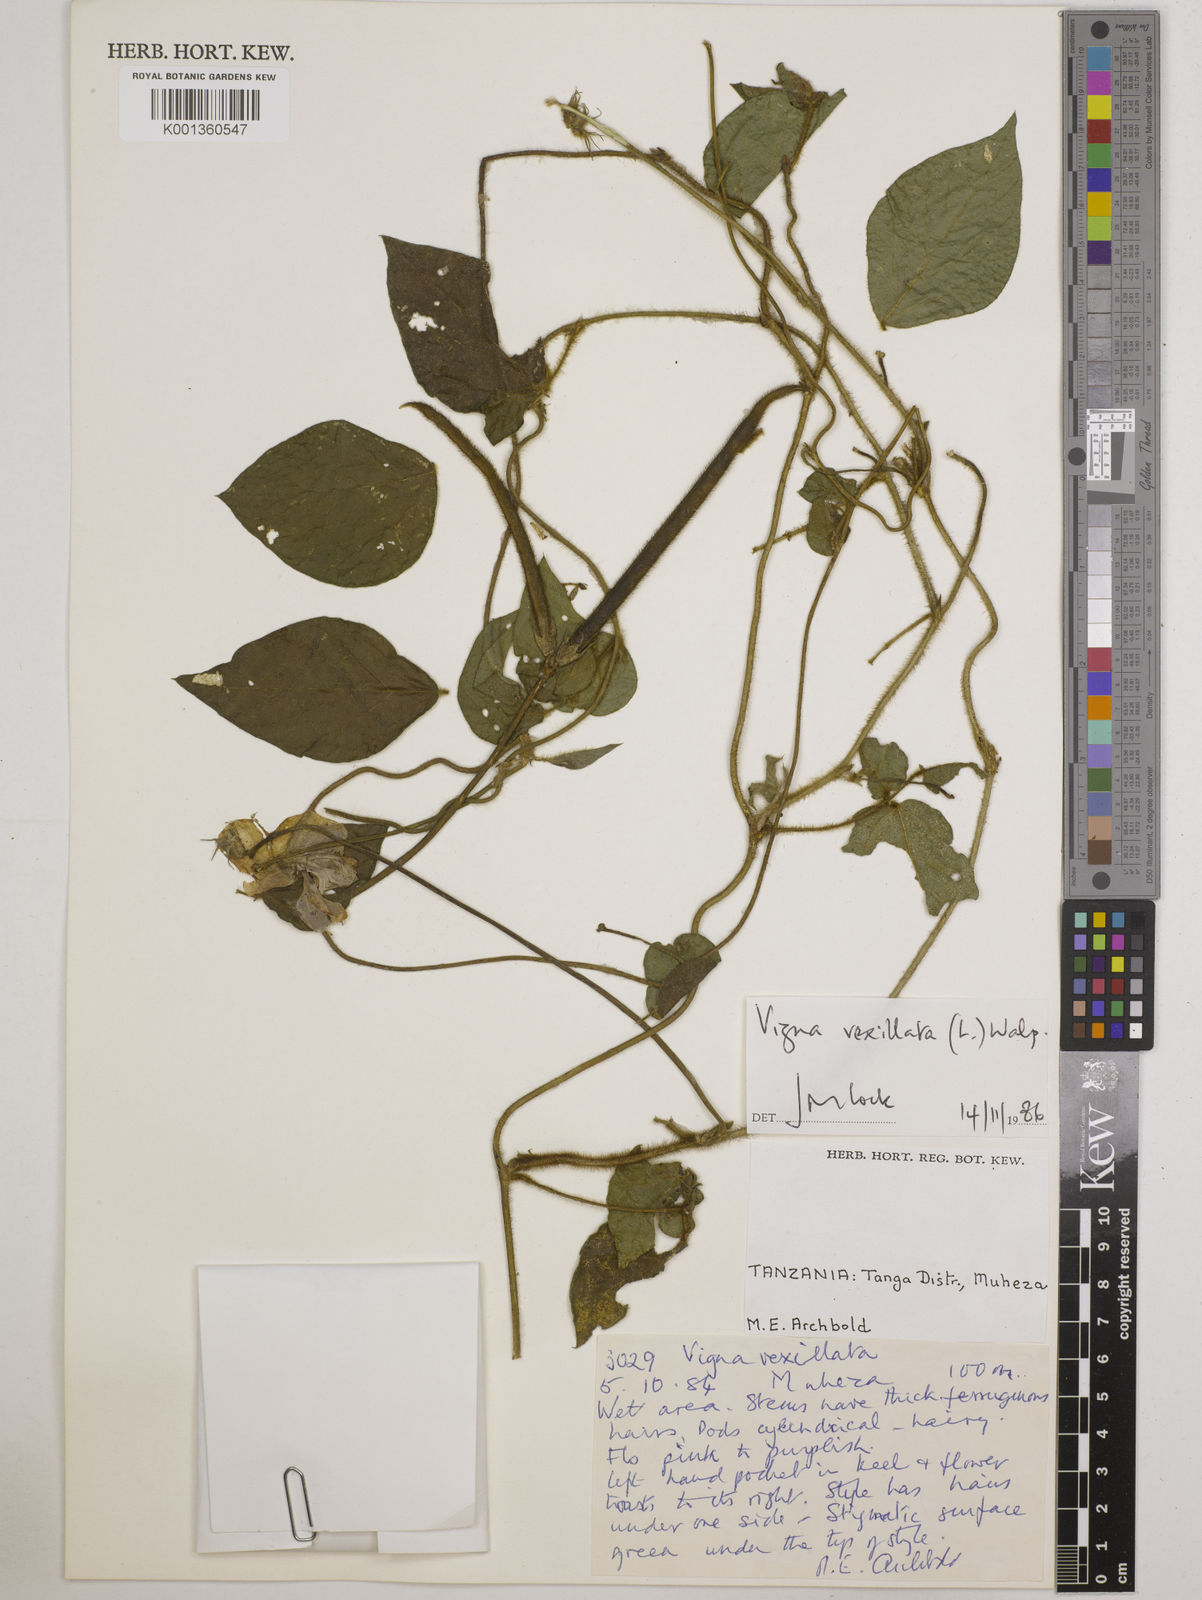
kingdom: Plantae
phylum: Tracheophyta
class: Magnoliopsida
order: Fabales
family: Fabaceae
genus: Vigna
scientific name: Vigna vexillata
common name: Zombi pea
